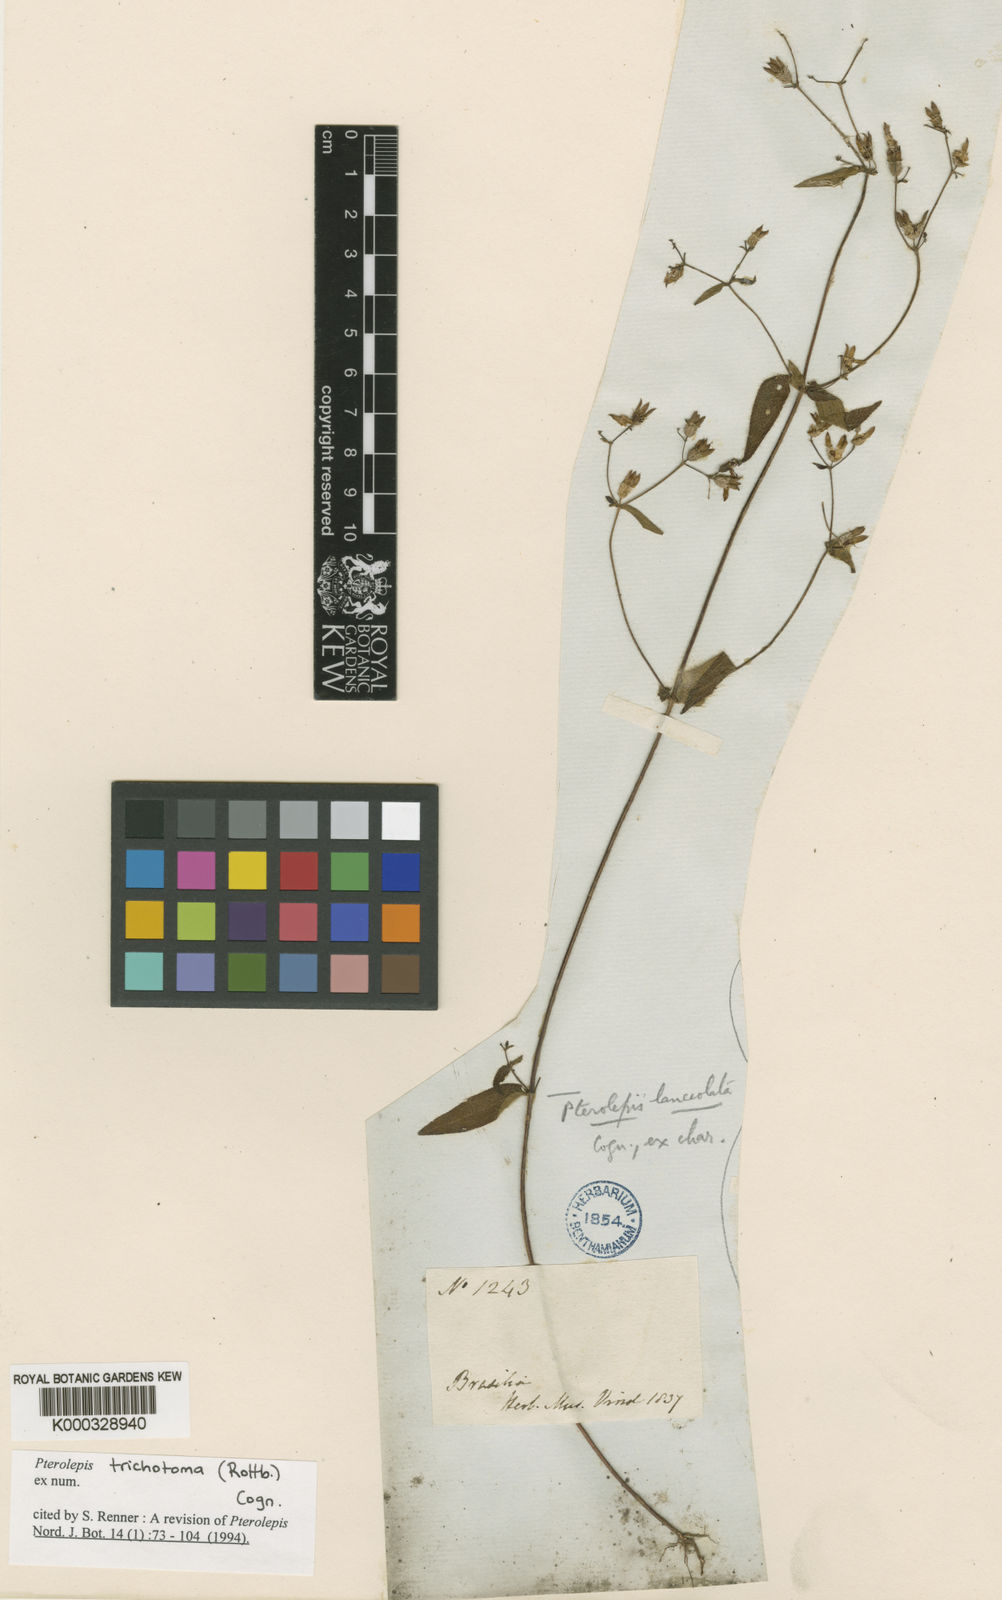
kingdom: Plantae
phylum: Tracheophyta
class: Magnoliopsida
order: Myrtales
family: Melastomataceae
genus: Pterolepis
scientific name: Pterolepis trichotoma
